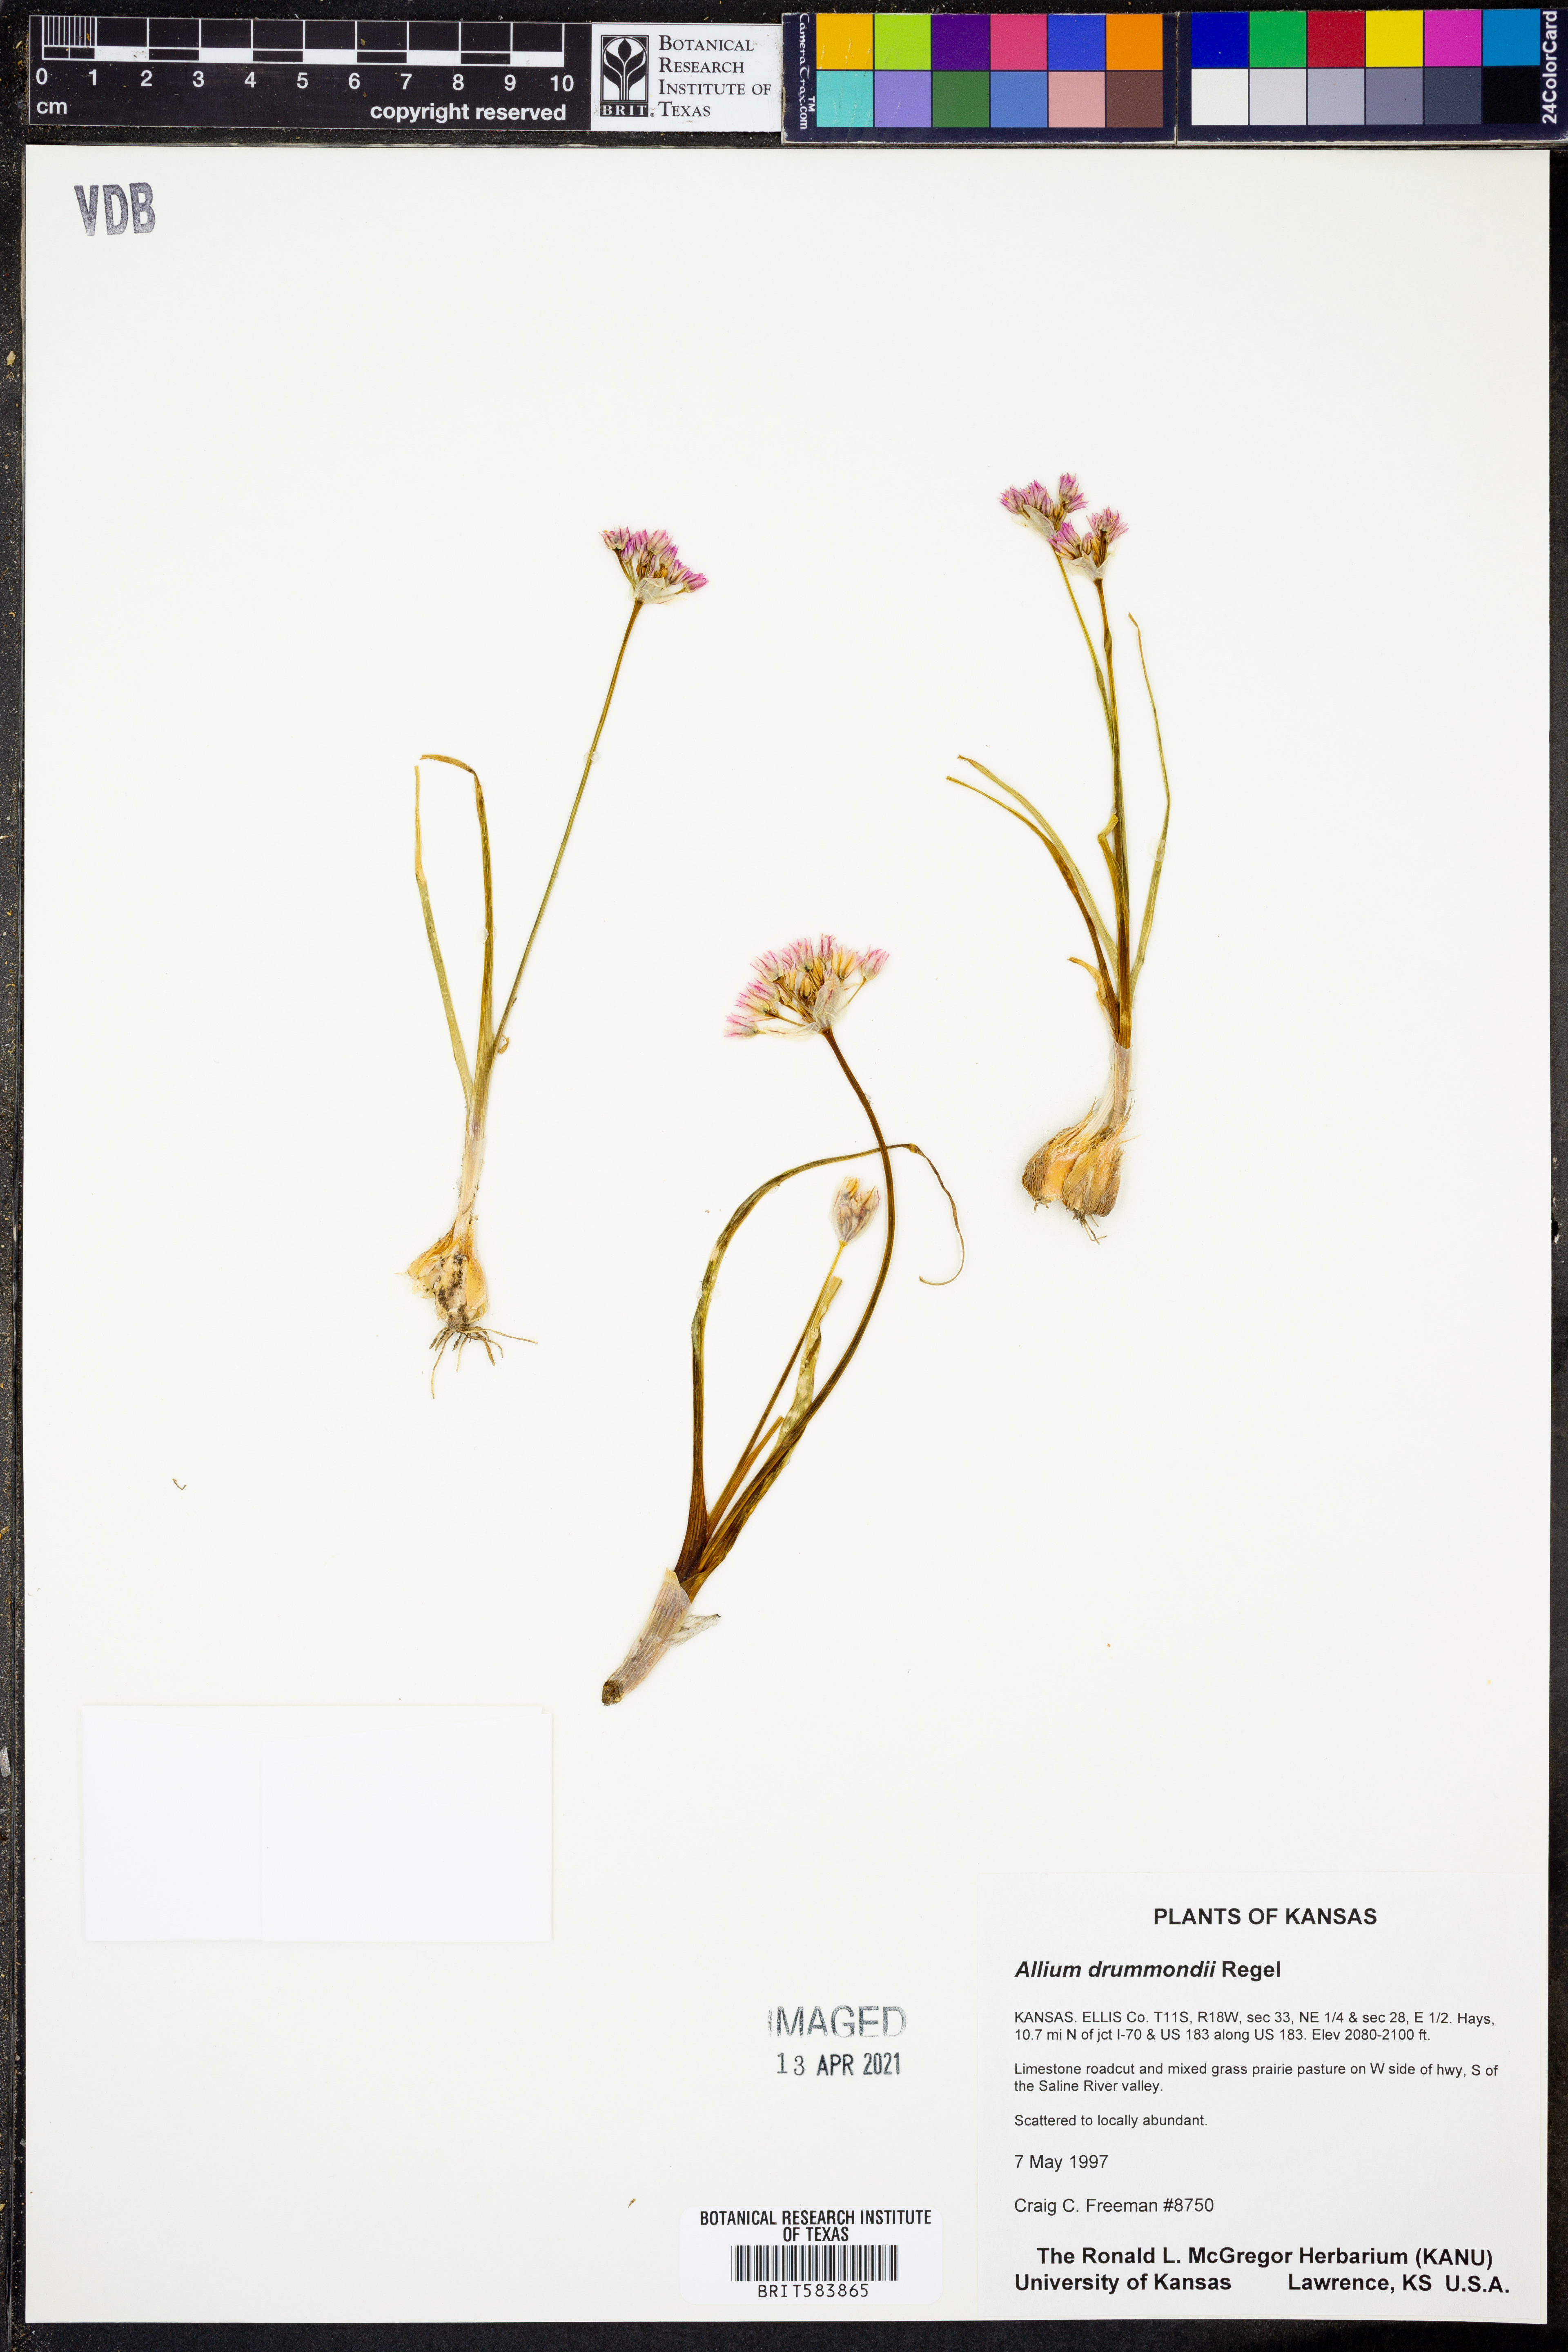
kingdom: Plantae
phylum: Tracheophyta
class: Liliopsida
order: Asparagales
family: Amaryllidaceae
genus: Allium
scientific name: Allium drummondii
